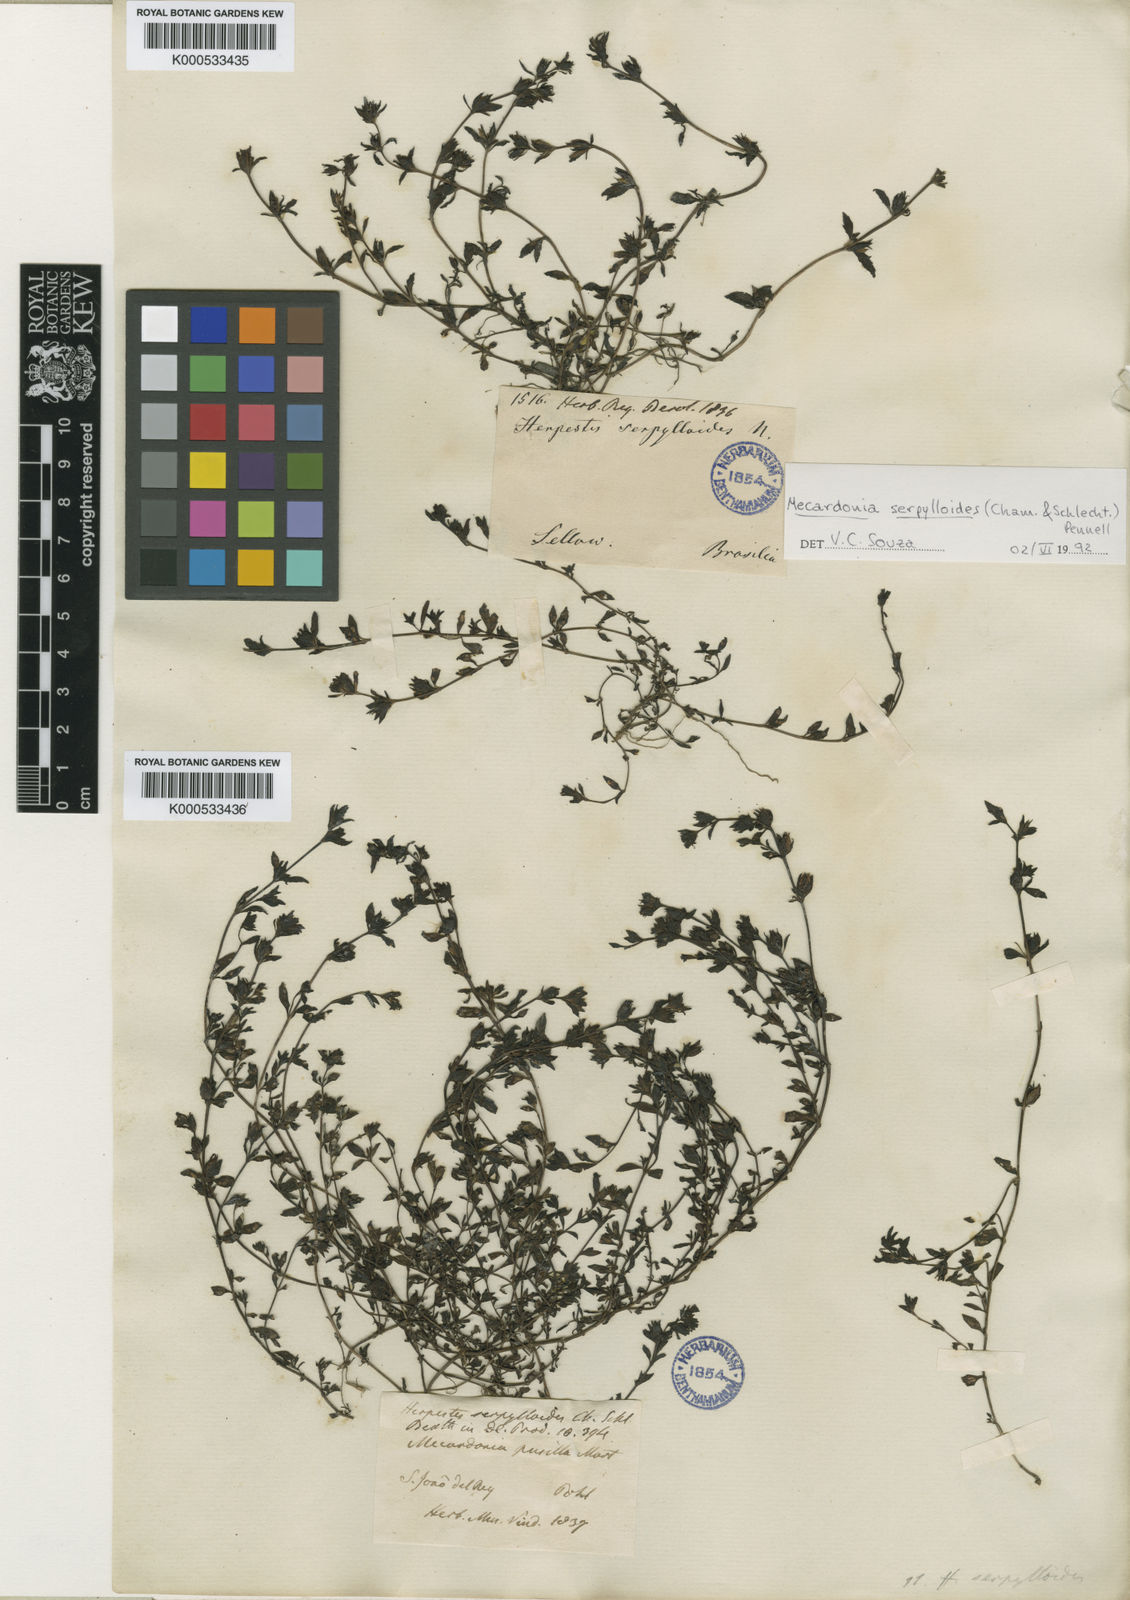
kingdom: Plantae
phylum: Tracheophyta
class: Magnoliopsida
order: Lamiales
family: Plantaginaceae
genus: Mecardonia
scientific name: Mecardonia serpylloides
